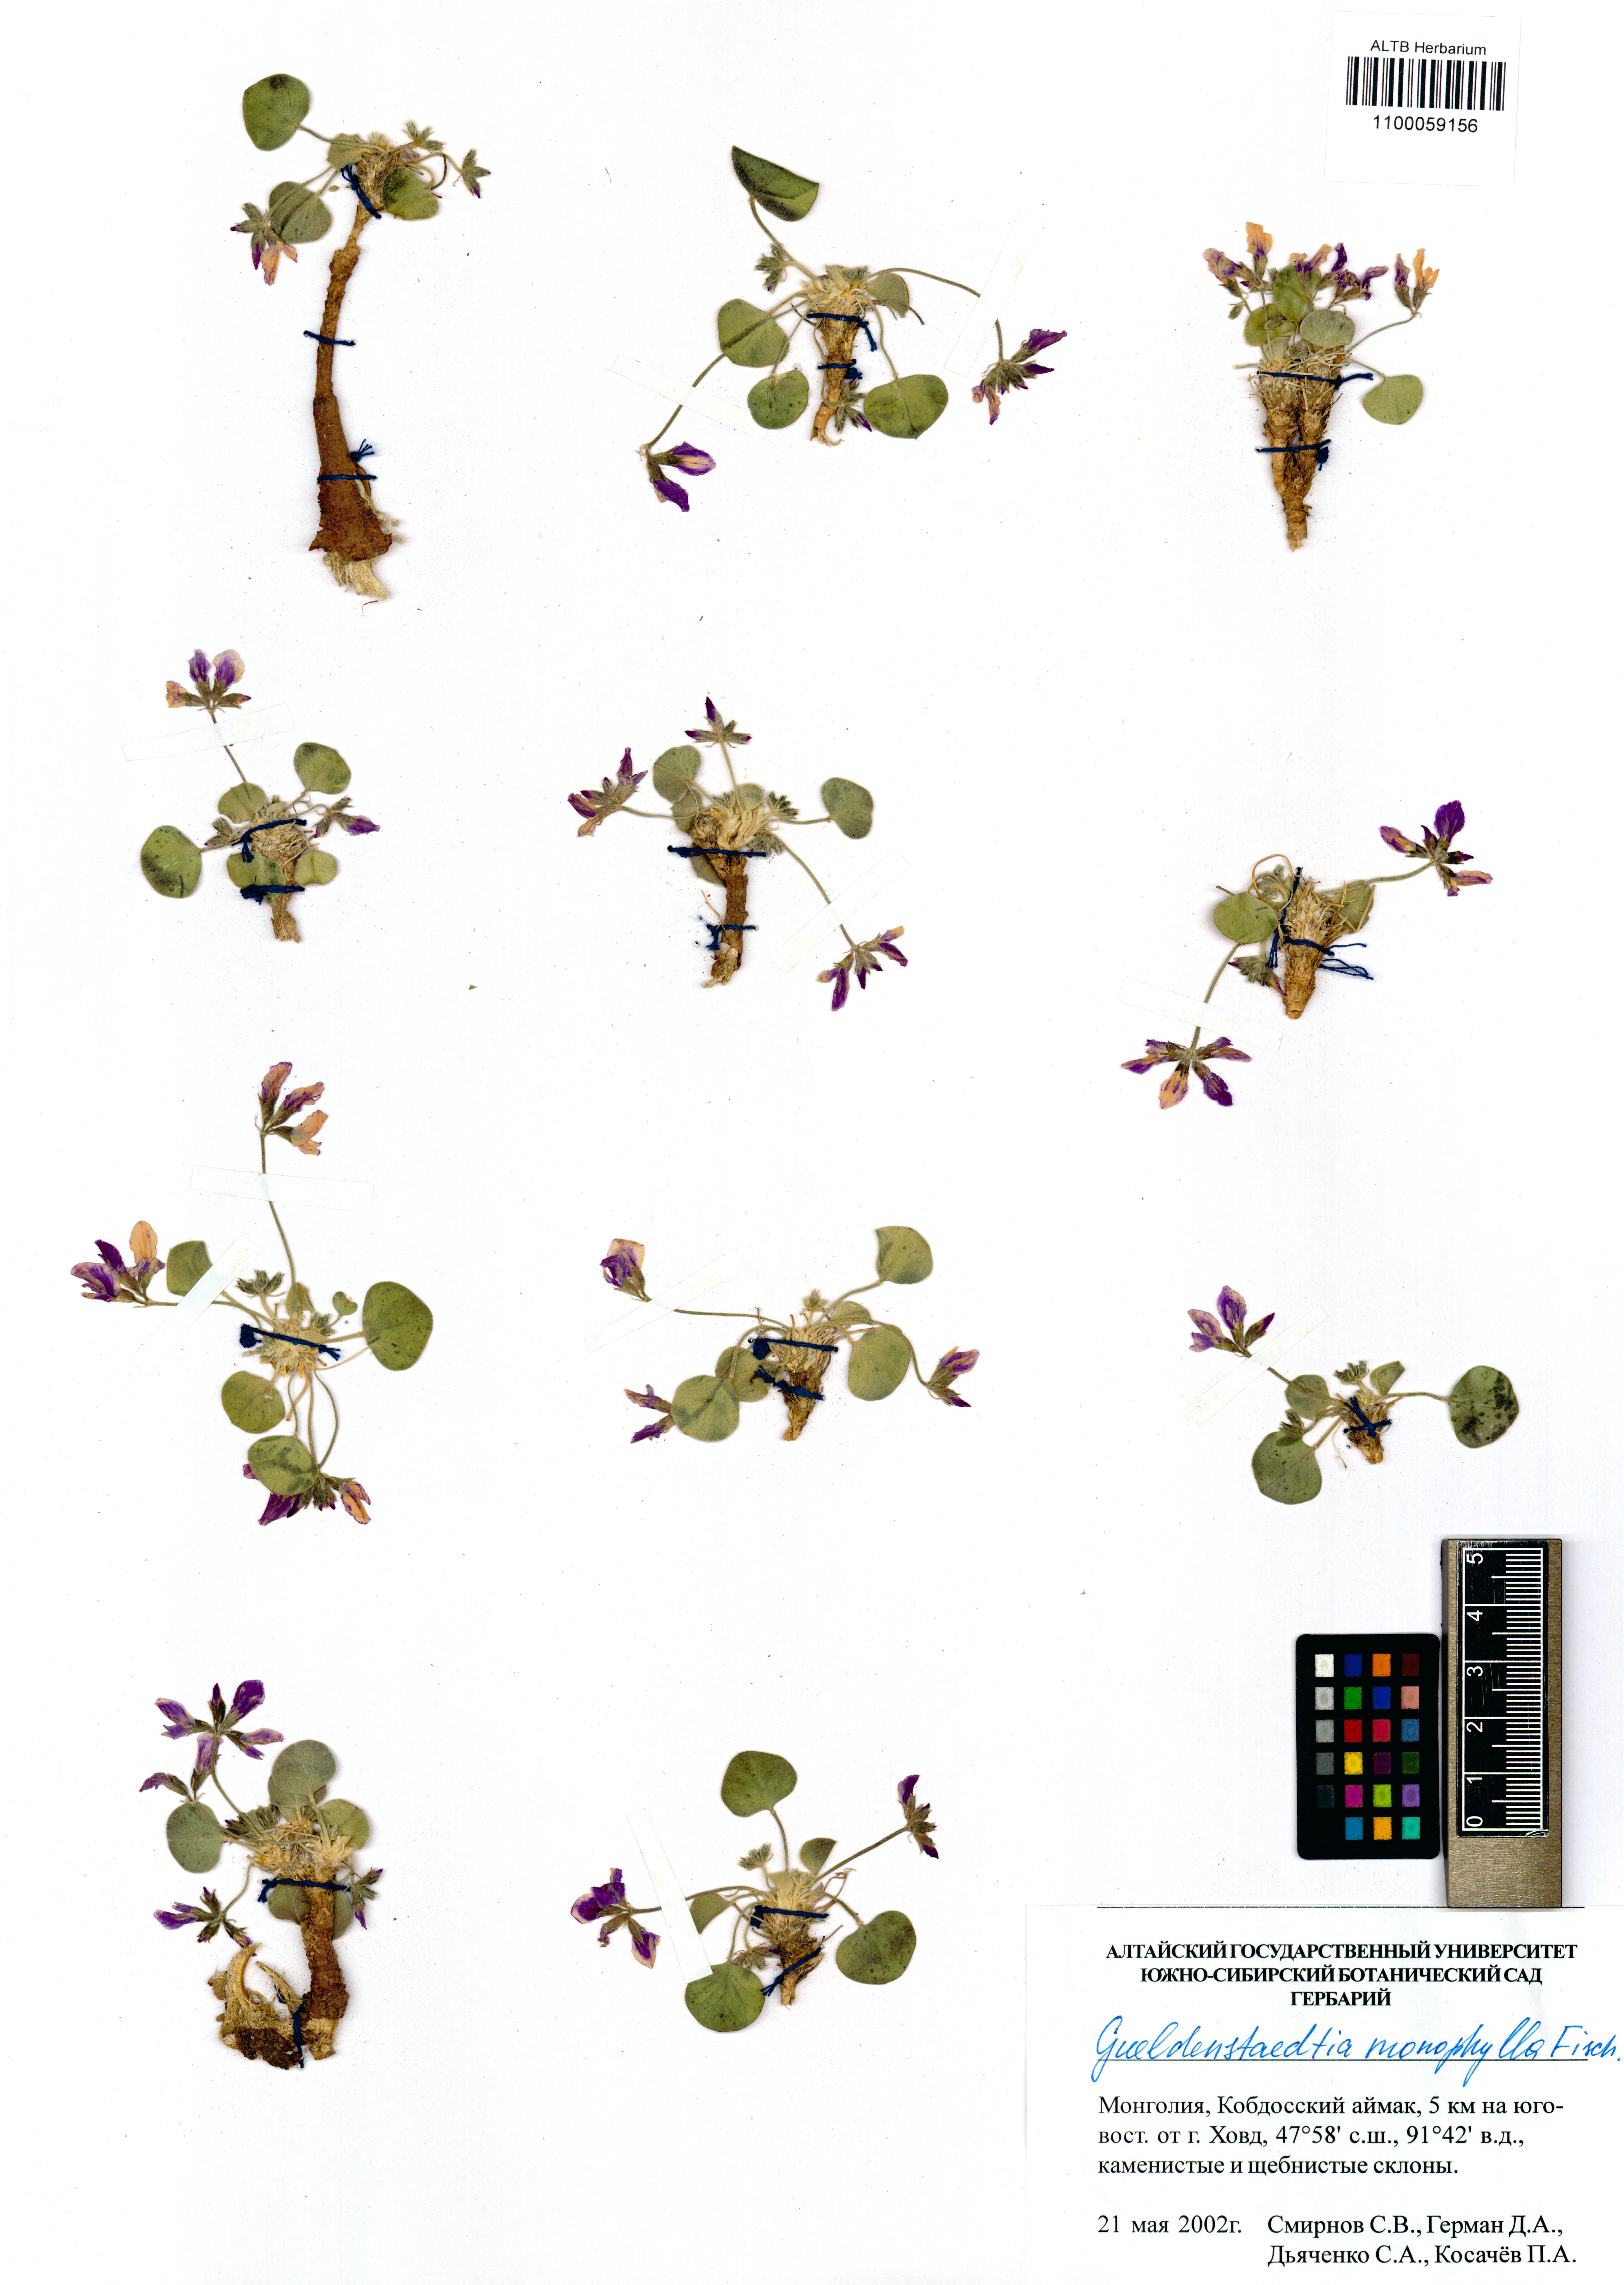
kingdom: Plantae
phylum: Tracheophyta
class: Magnoliopsida
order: Fabales
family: Fabaceae
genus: Gueldenstaedtia
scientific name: Gueldenstaedtia monophylla
